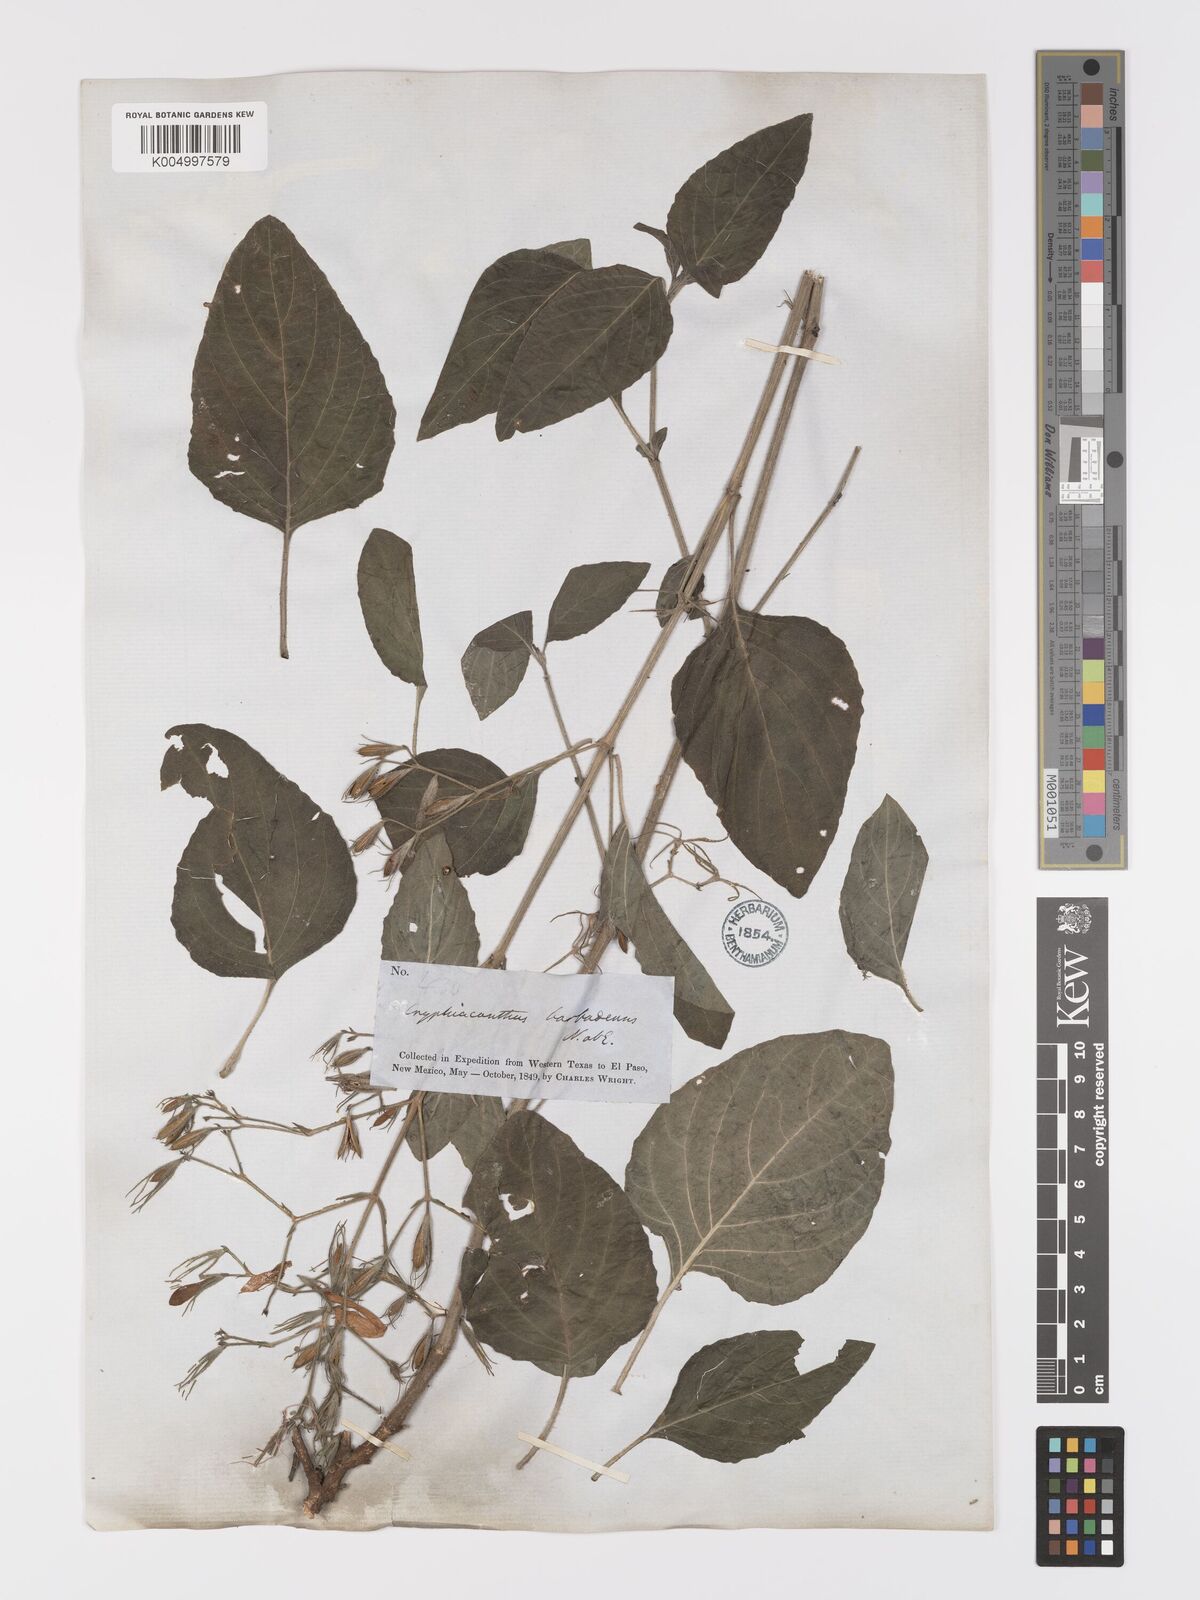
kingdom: Plantae
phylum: Tracheophyta
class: Magnoliopsida
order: Lamiales
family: Acanthaceae
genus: Ruellia
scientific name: Ruellia tuberosa
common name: Devil's bit
